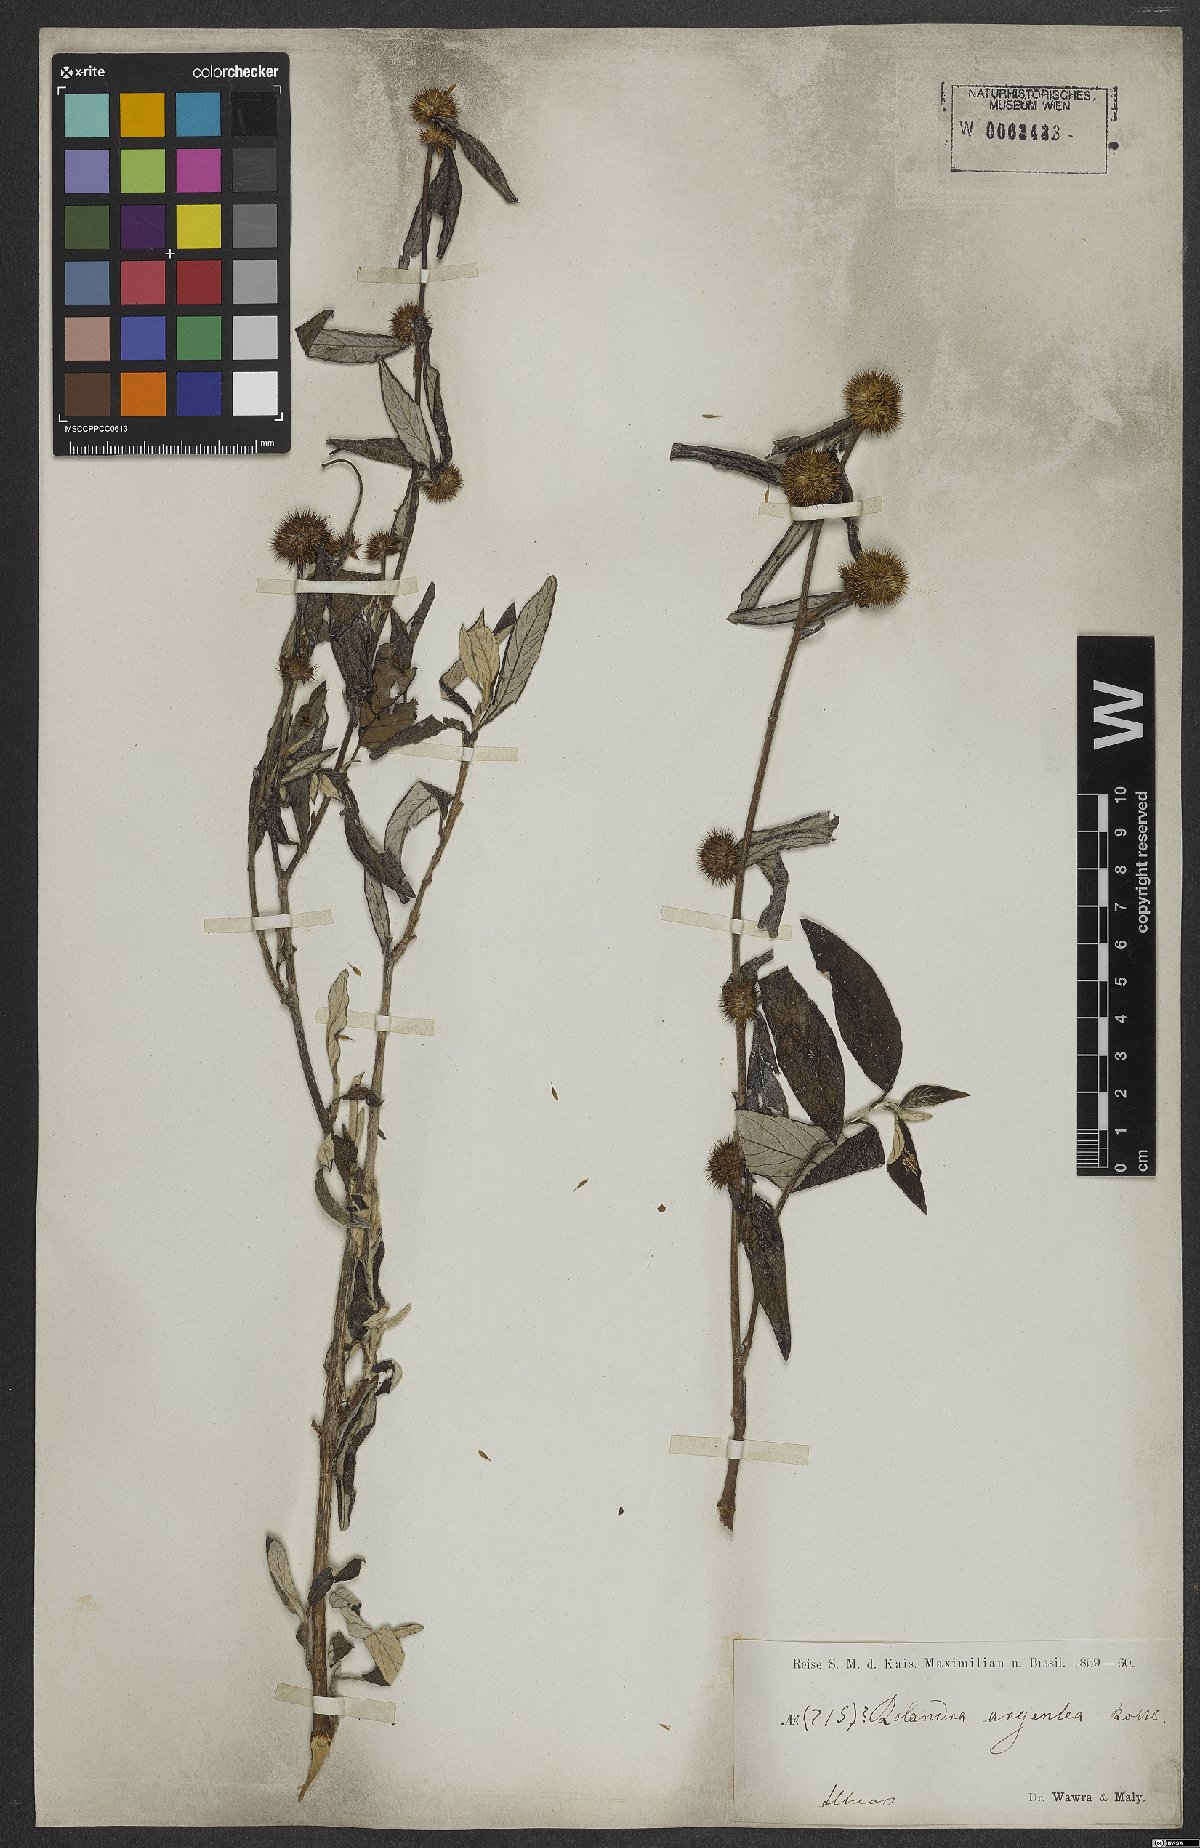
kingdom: Plantae
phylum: Tracheophyta
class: Magnoliopsida
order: Asterales
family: Asteraceae
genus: Rolandra
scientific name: Rolandra fruticosa
